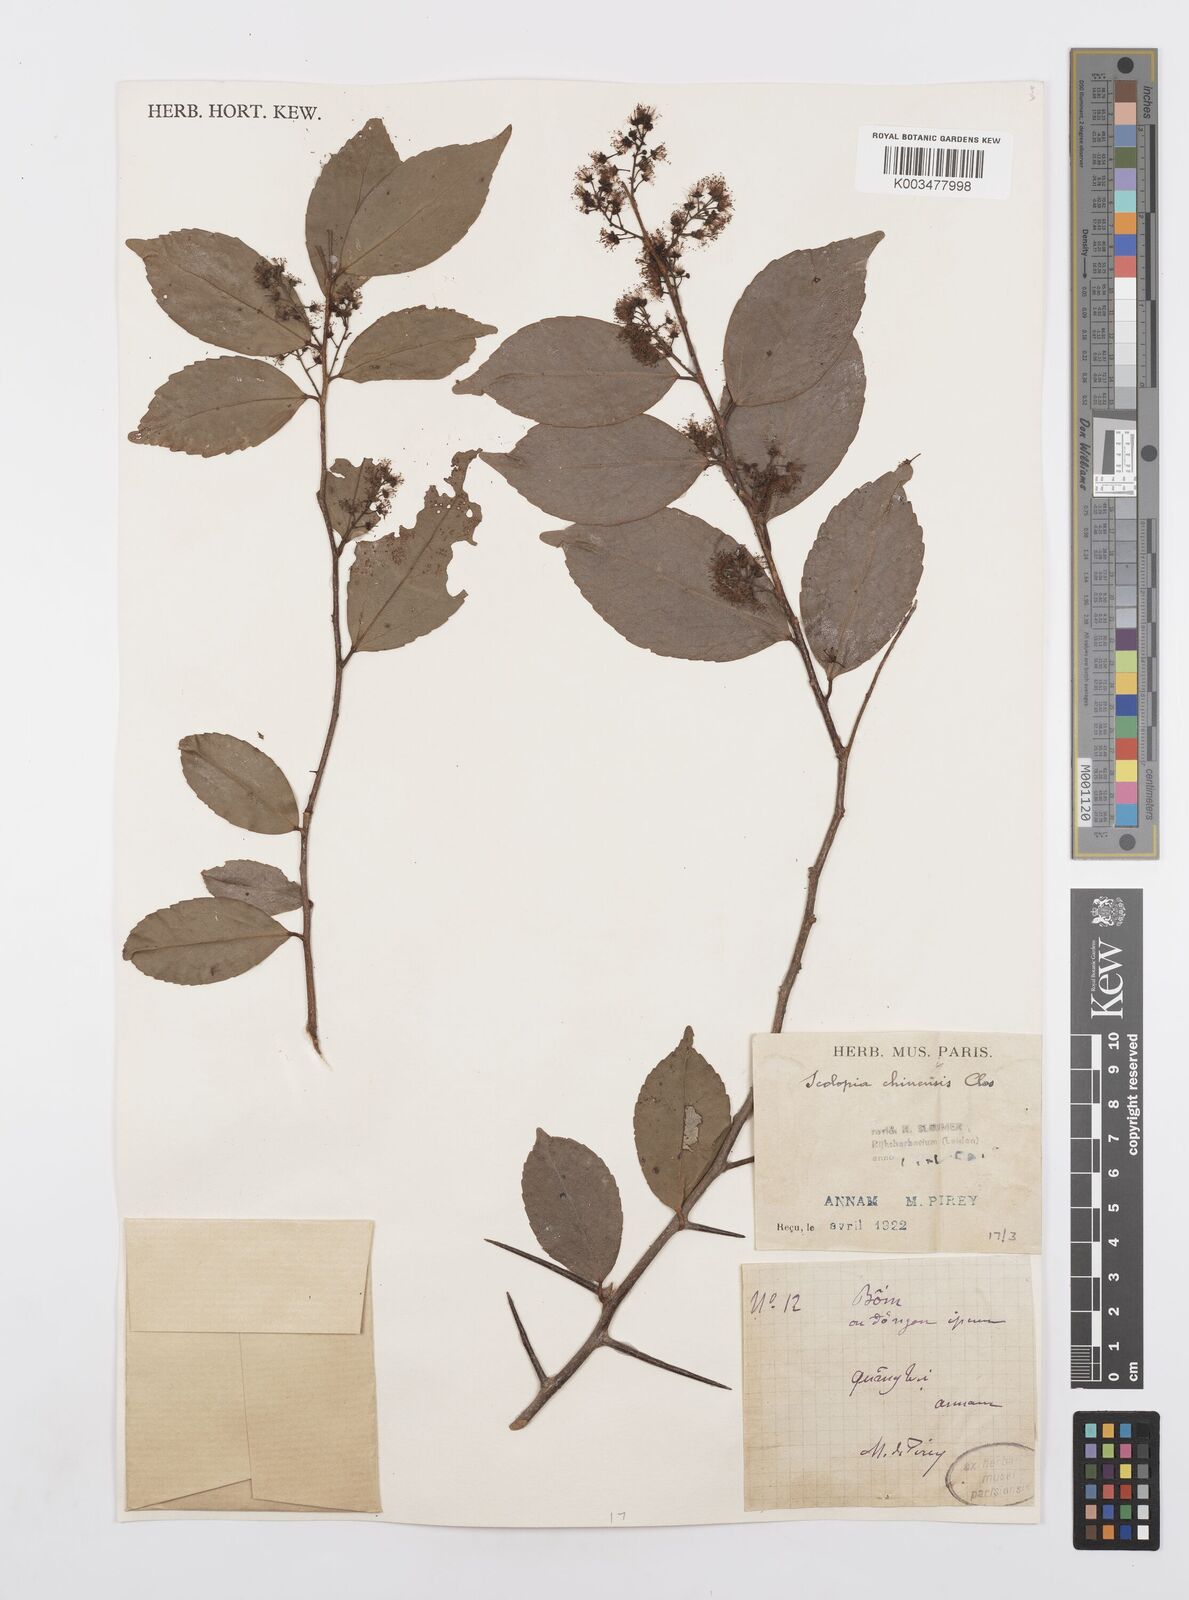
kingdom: Plantae
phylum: Tracheophyta
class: Magnoliopsida
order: Malpighiales
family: Salicaceae
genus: Scolopia
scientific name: Scolopia chinensis
